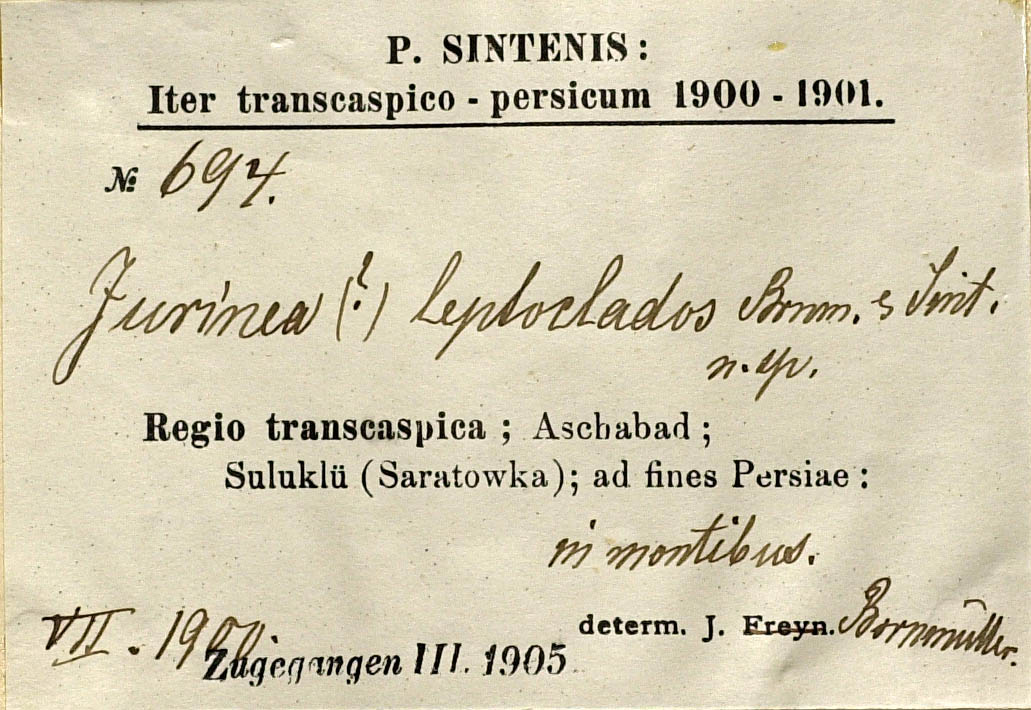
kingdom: Plantae
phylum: Tracheophyta
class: Magnoliopsida
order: Asterales
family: Asteraceae
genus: Klasea
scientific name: Klasea leptoclada
